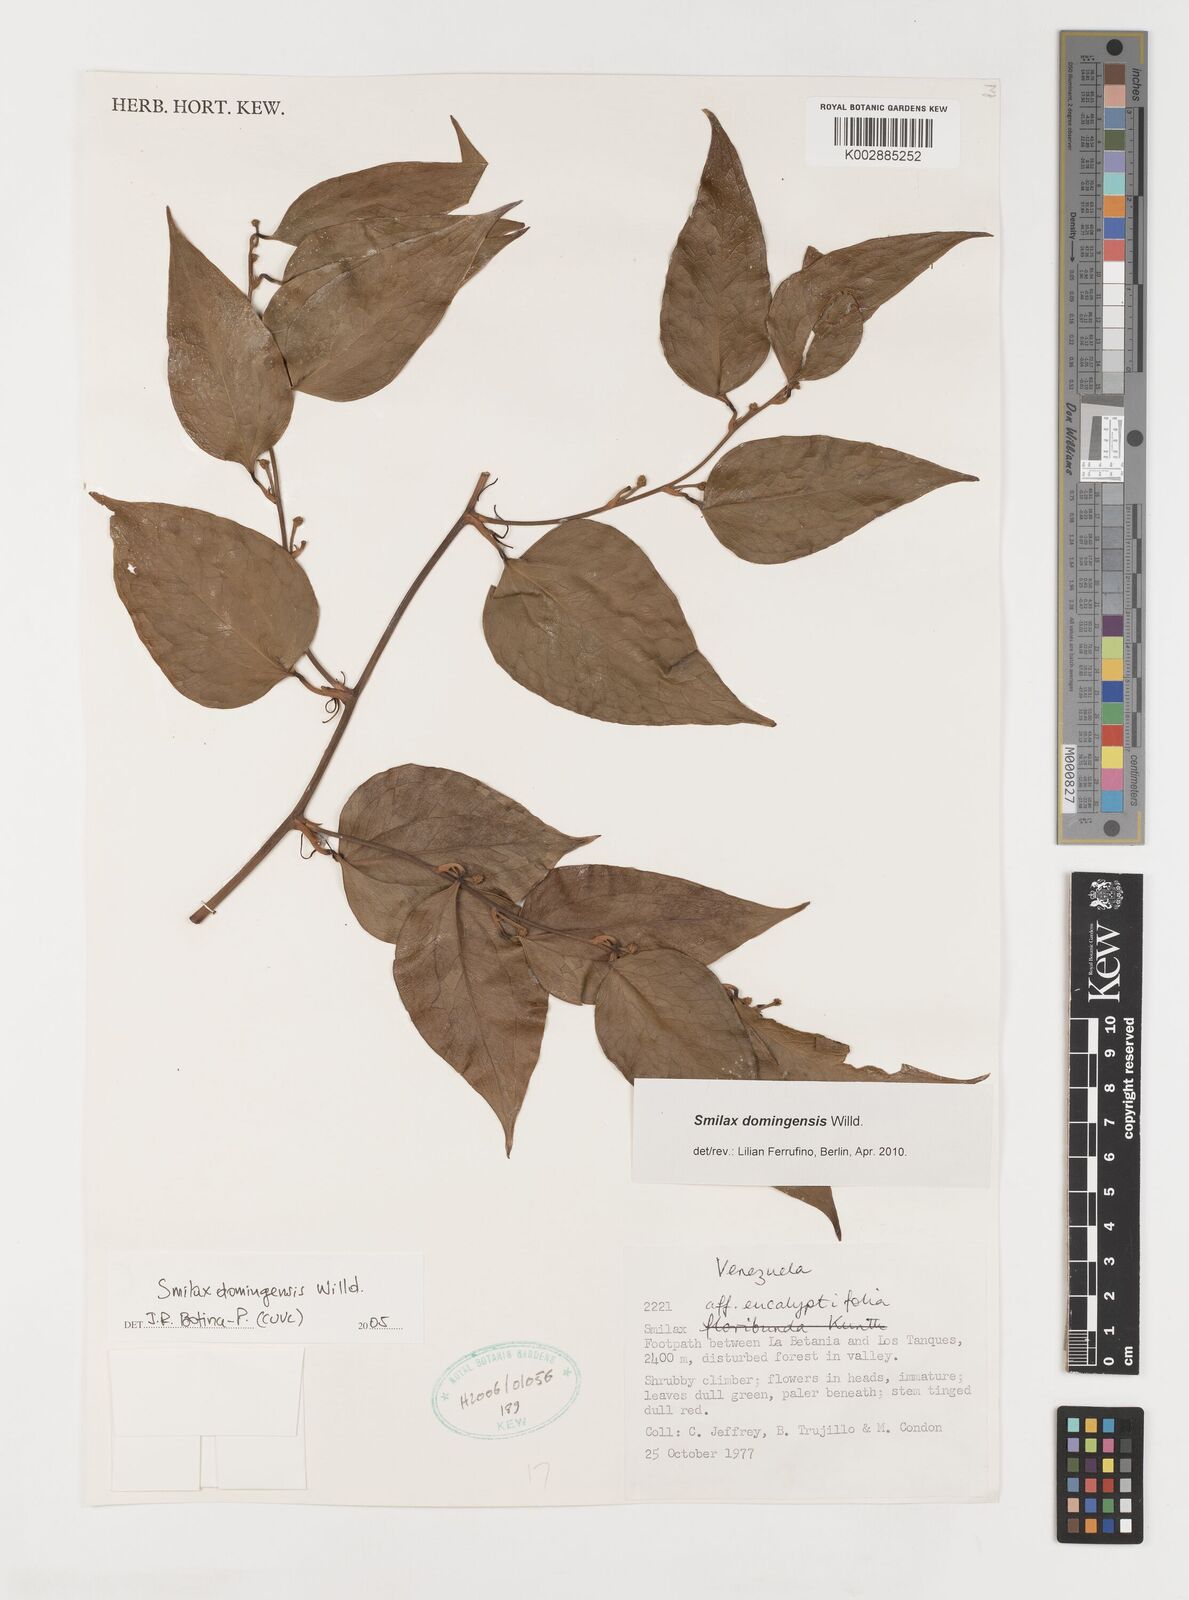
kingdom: Plantae
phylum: Tracheophyta
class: Liliopsida
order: Liliales
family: Smilacaceae
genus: Smilax
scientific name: Smilax domingensis
